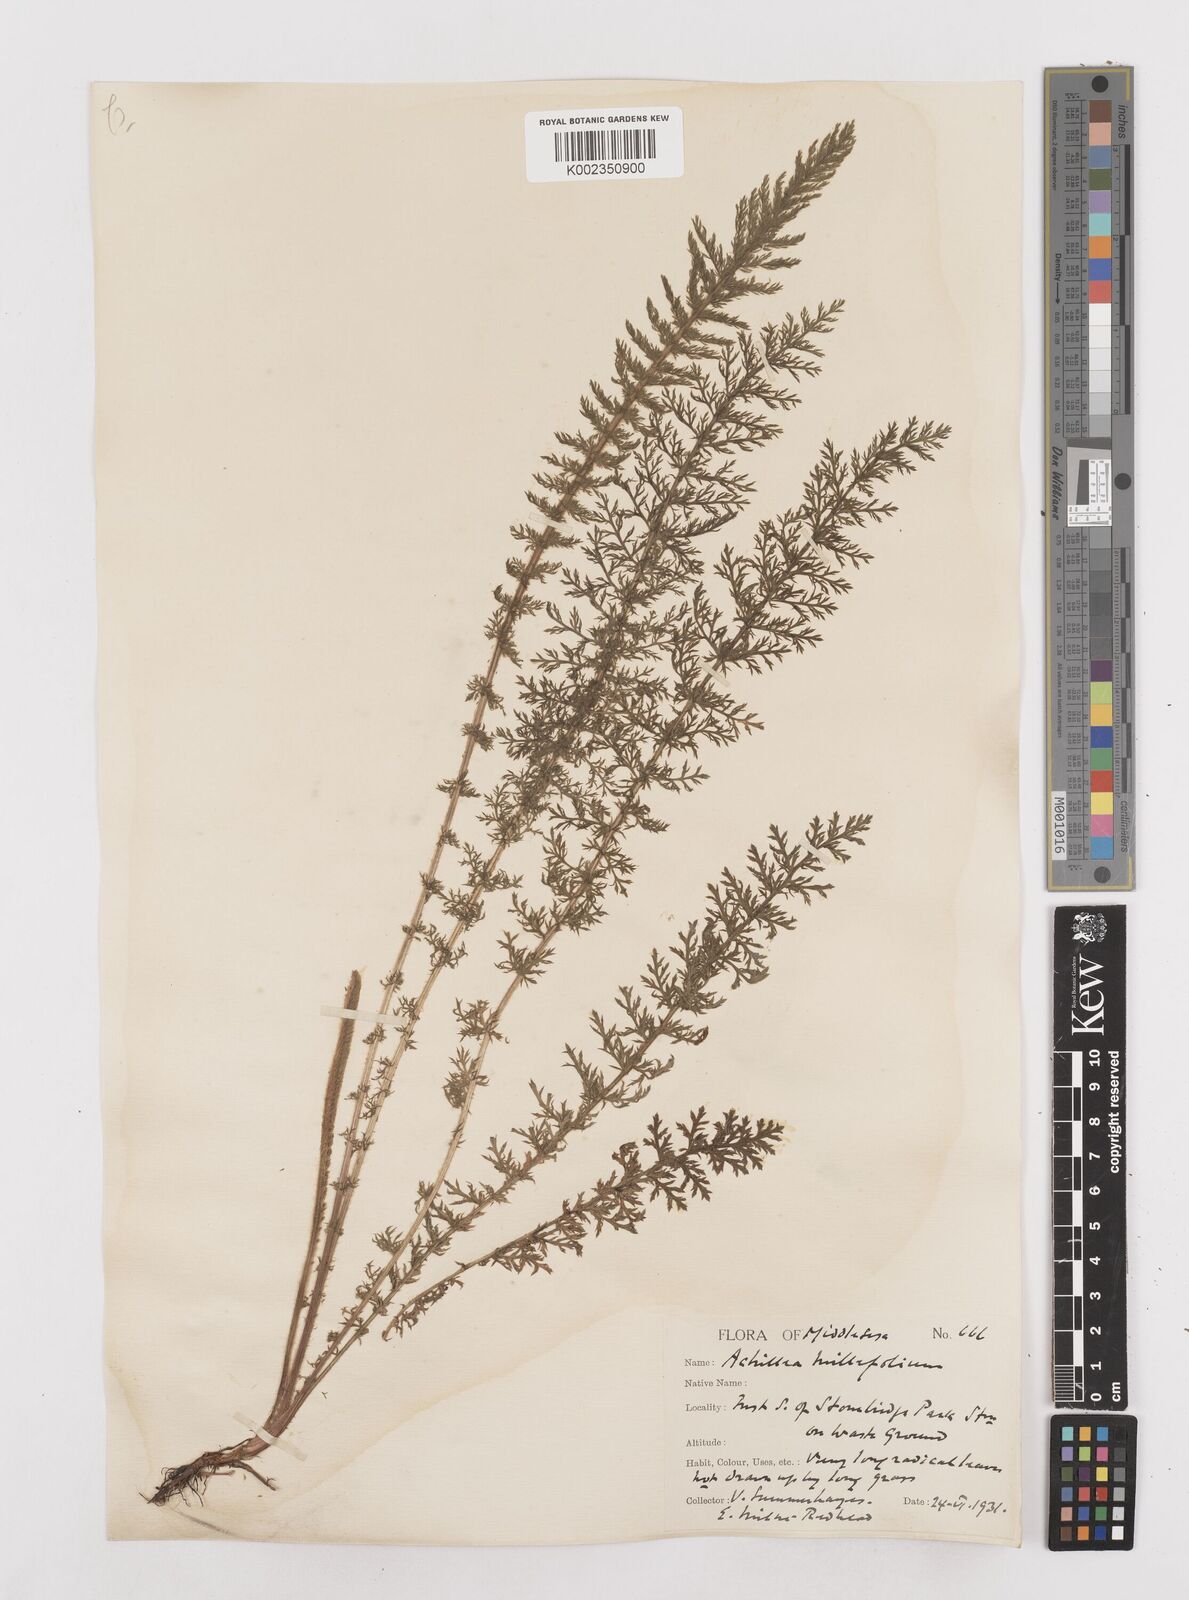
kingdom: Plantae
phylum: Tracheophyta
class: Magnoliopsida
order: Asterales
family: Asteraceae
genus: Achillea
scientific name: Achillea millefolium
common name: Yarrow
